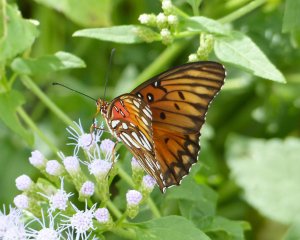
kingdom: Animalia
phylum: Arthropoda
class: Insecta
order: Lepidoptera
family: Nymphalidae
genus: Dione
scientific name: Dione vanillae
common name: Gulf Fritillary
